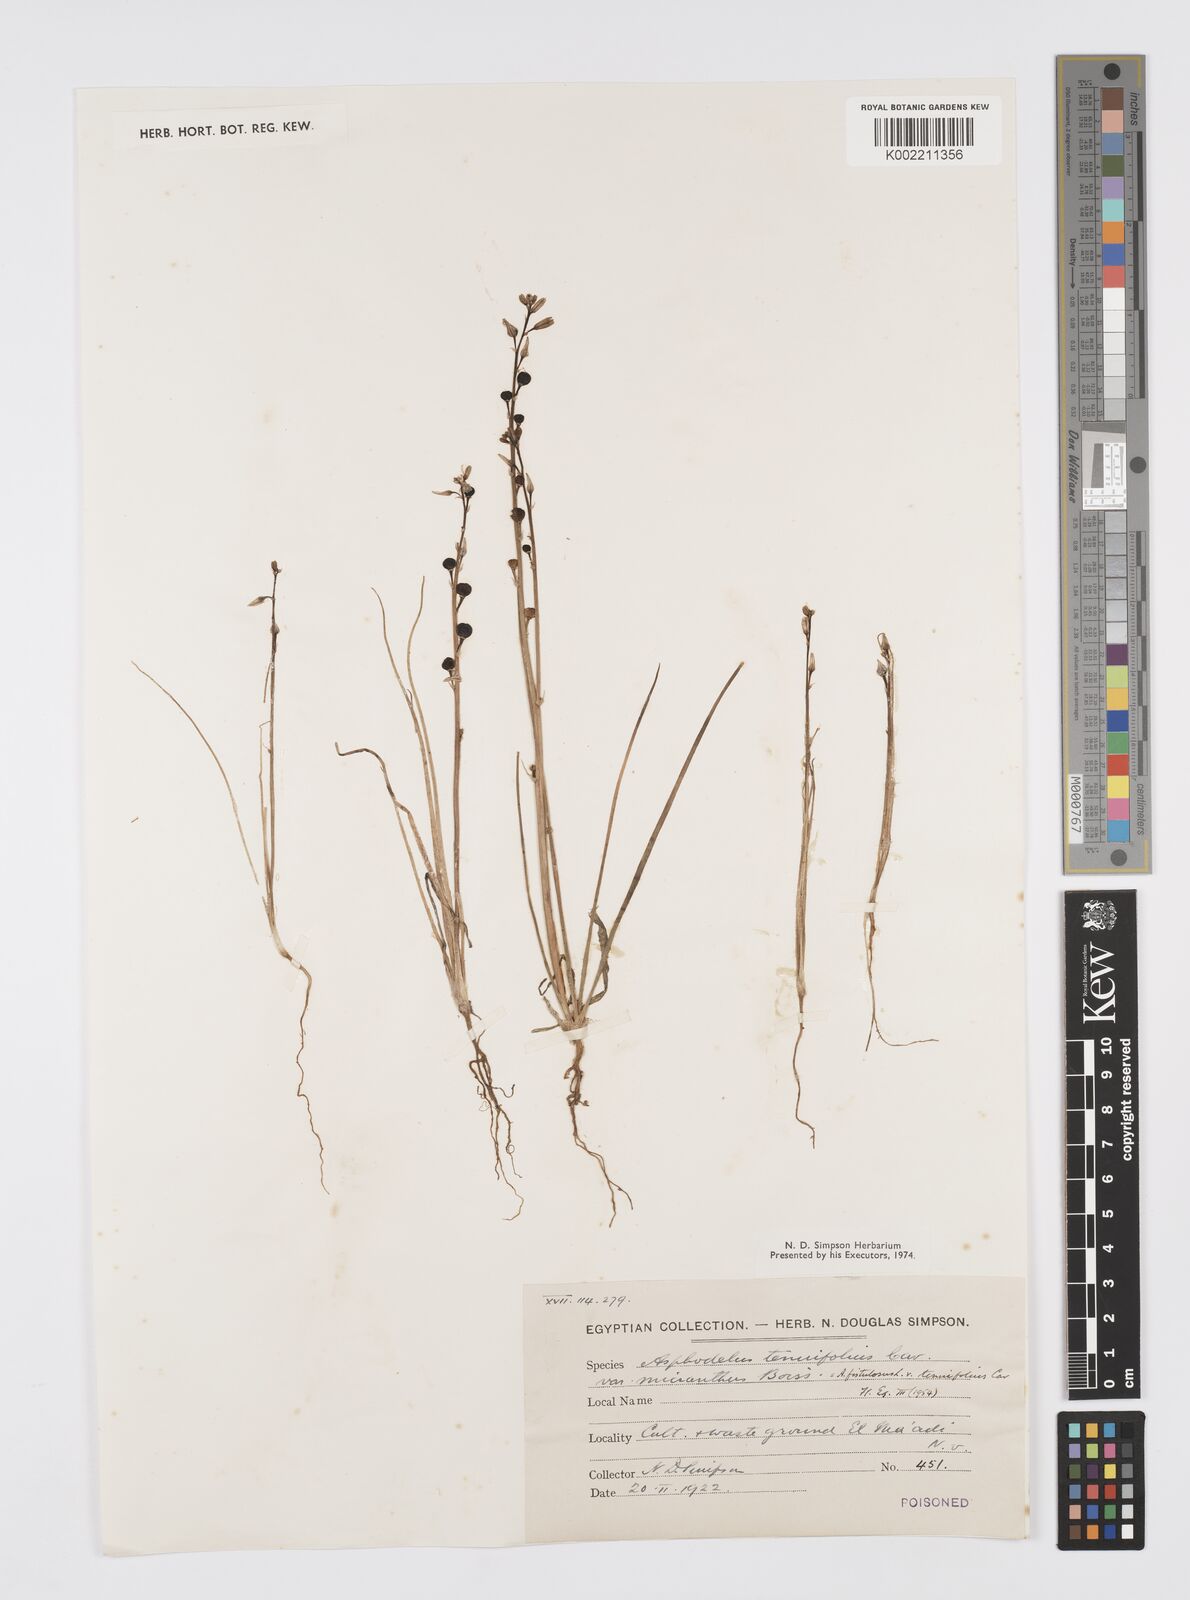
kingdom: Plantae
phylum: Tracheophyta
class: Liliopsida
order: Asparagales
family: Asphodelaceae
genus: Asphodelus
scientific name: Asphodelus tenuifolius
